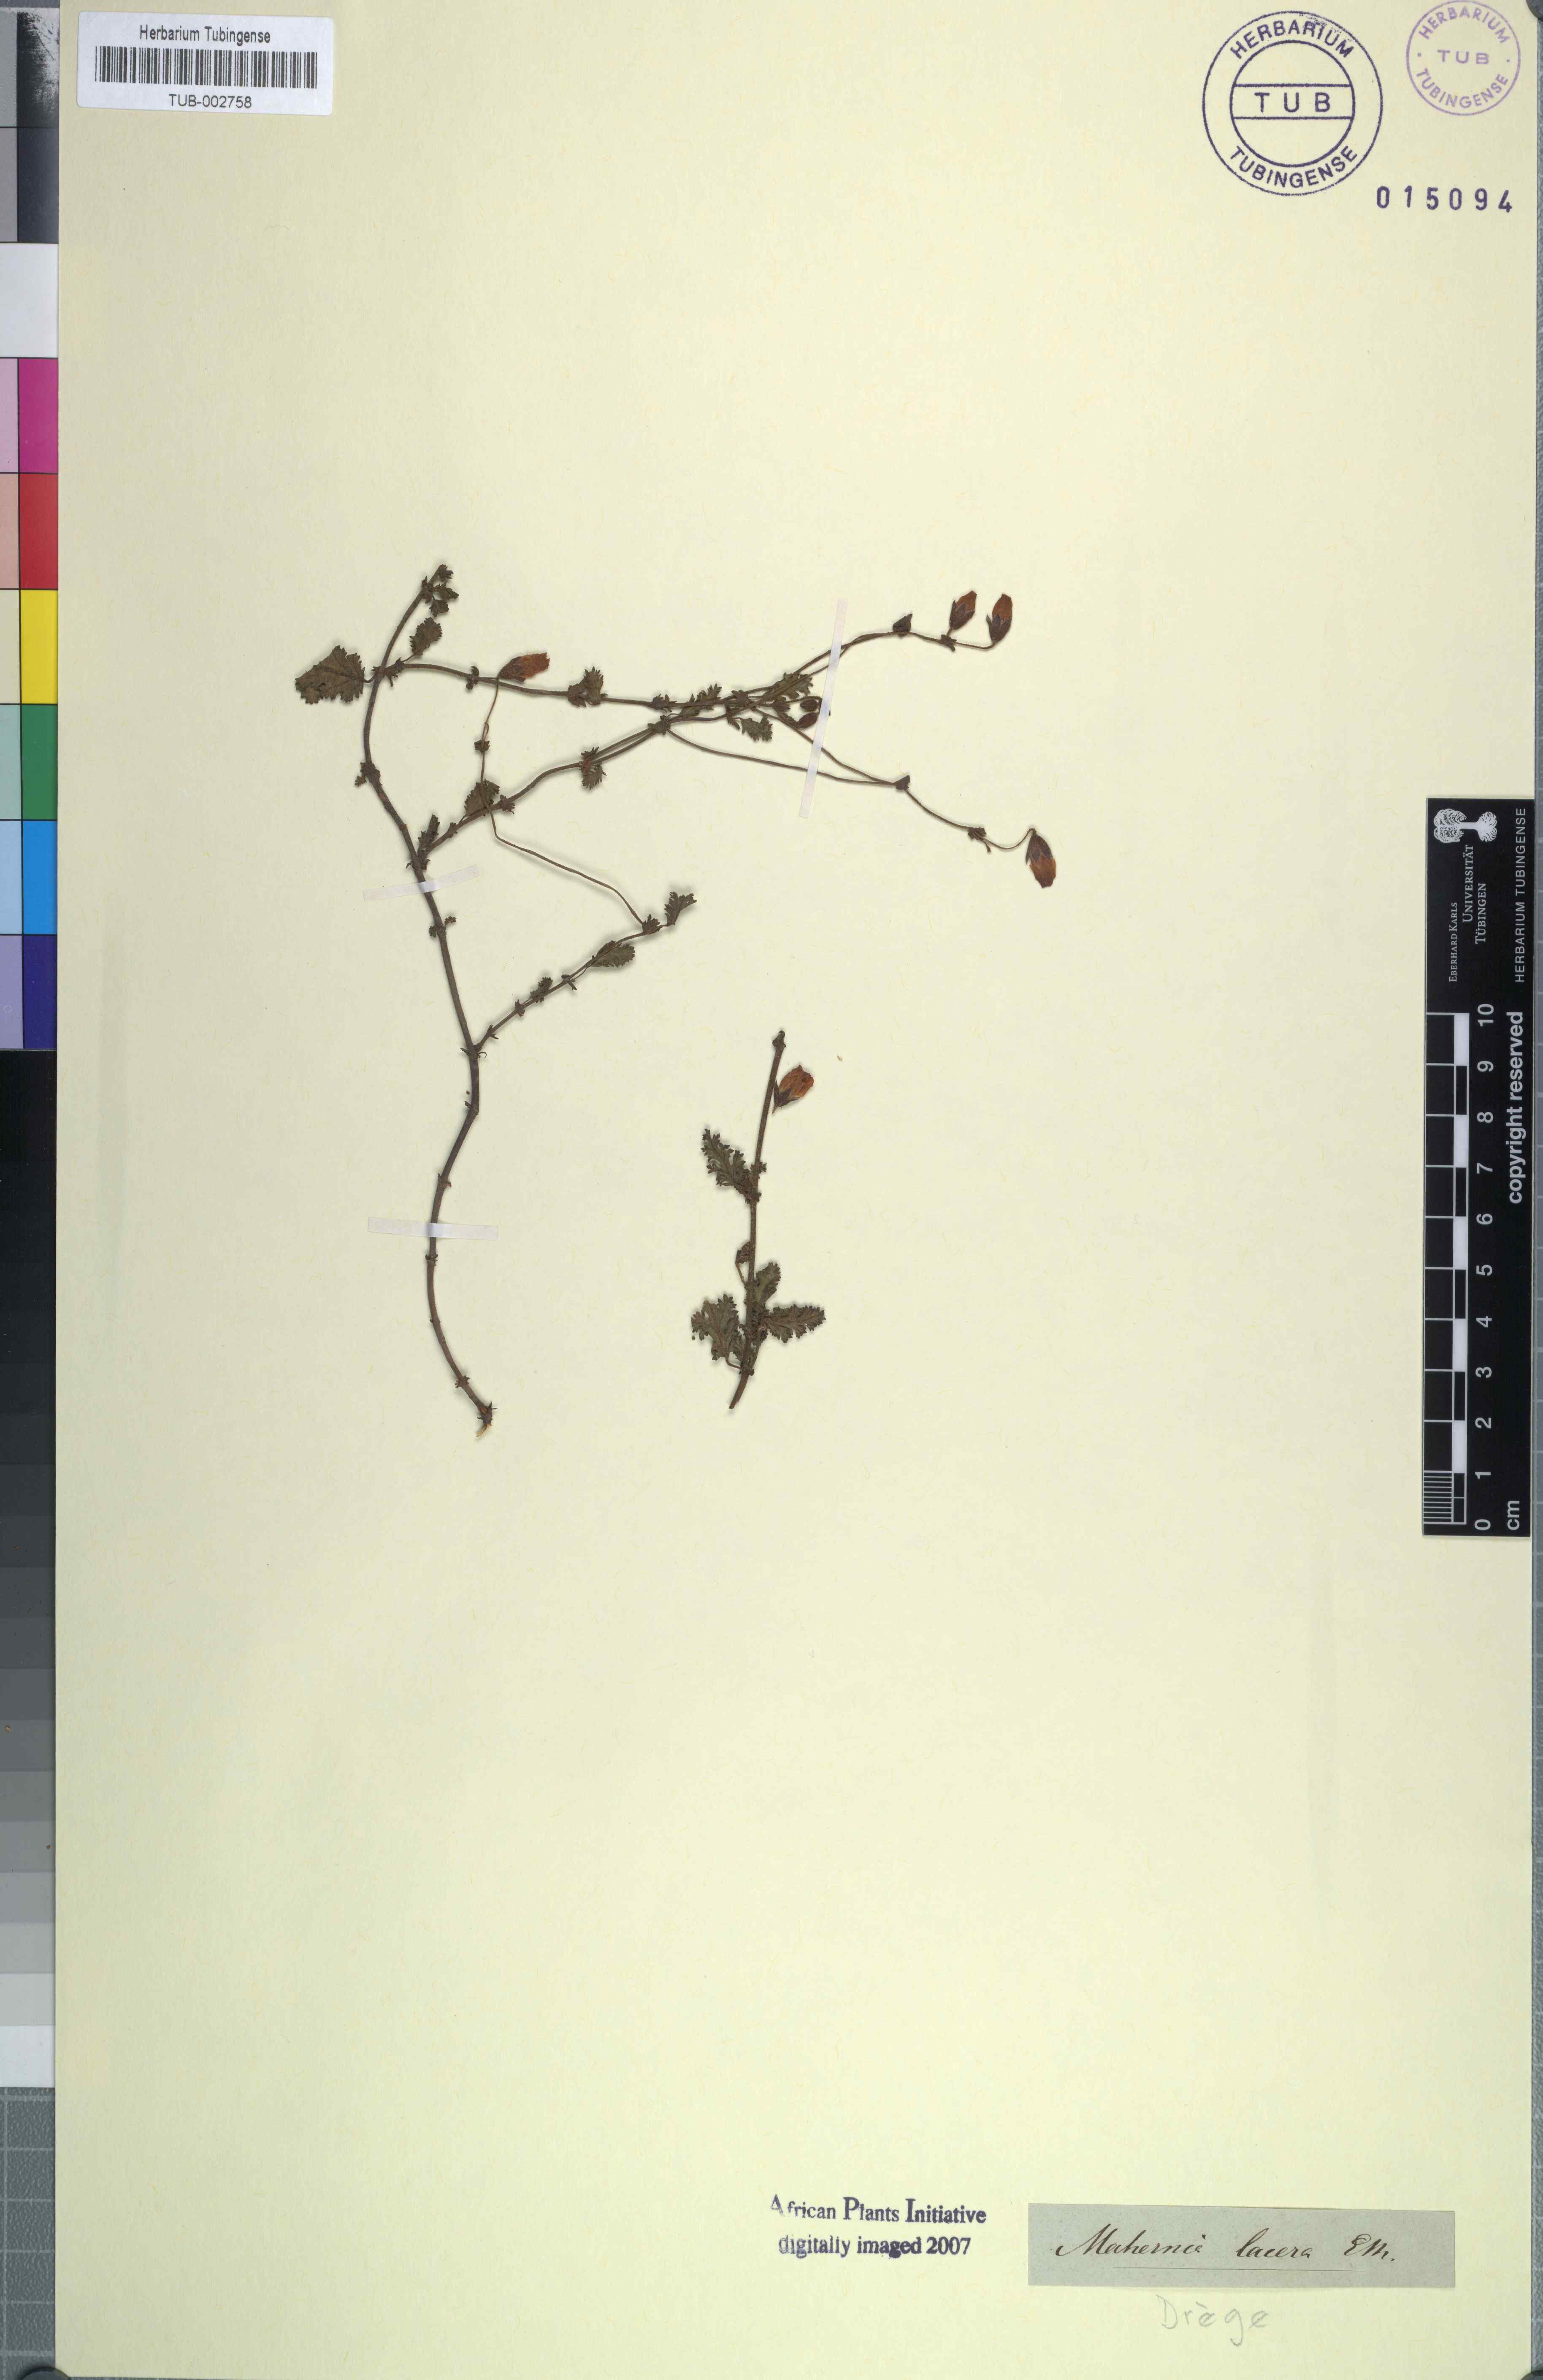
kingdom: Plantae
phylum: Tracheophyta
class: Magnoliopsida
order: Malvales
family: Malvaceae
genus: Hermannia
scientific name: Hermannia lacera
